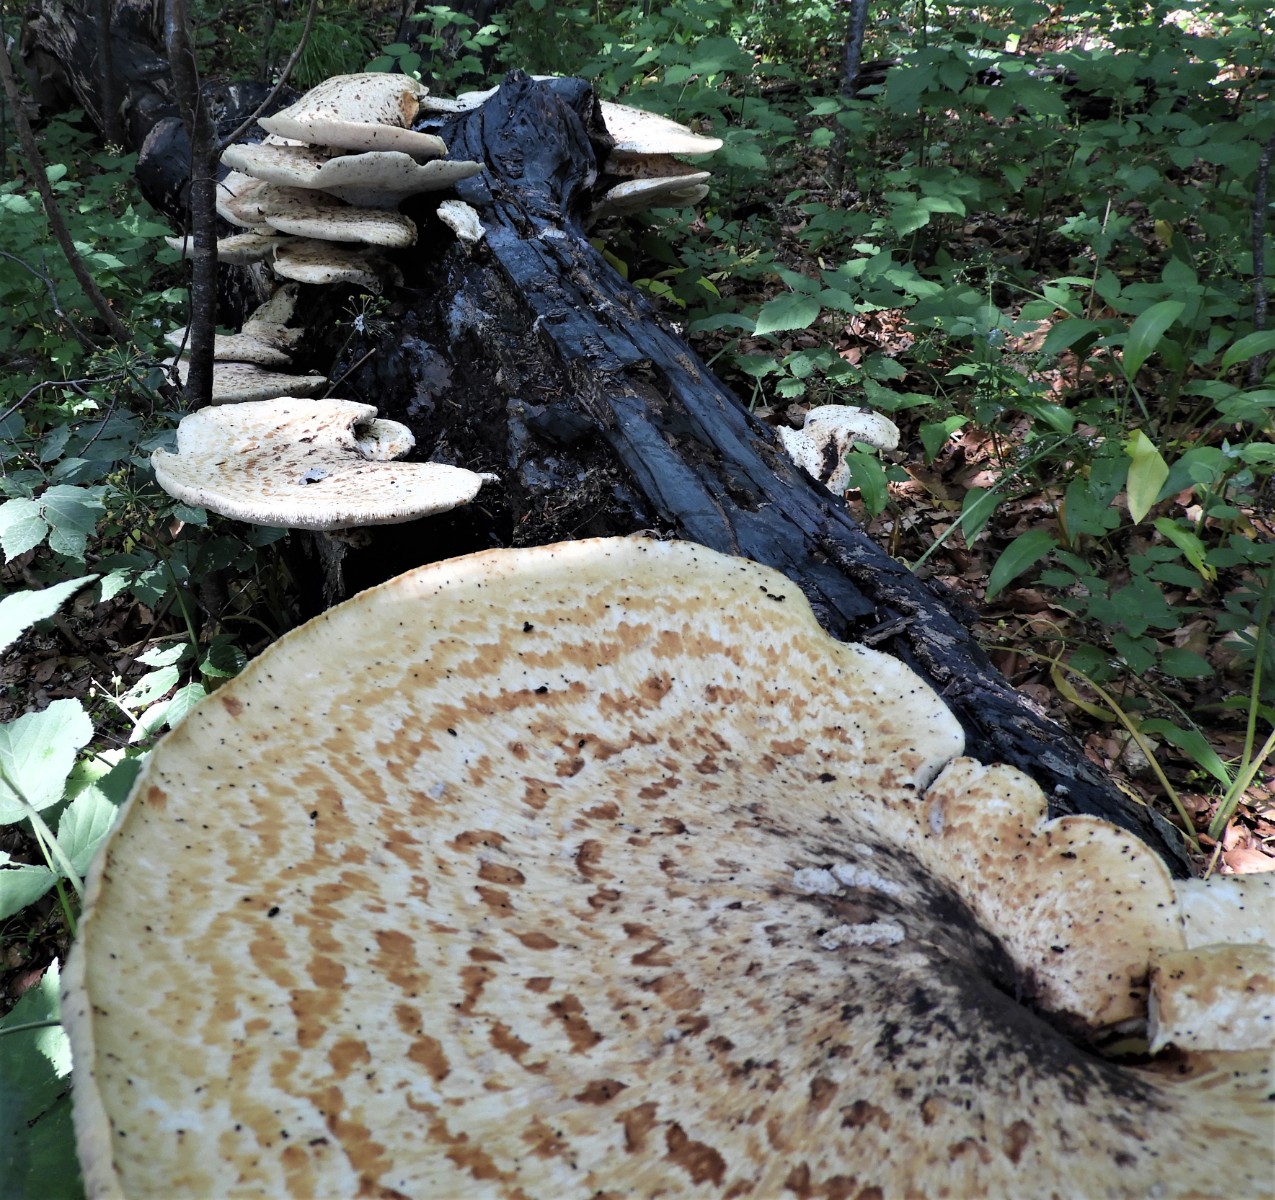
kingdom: Fungi
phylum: Basidiomycota
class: Agaricomycetes
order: Polyporales
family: Polyporaceae
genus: Cerioporus
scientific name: Cerioporus squamosus
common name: skællet stilkporesvamp
